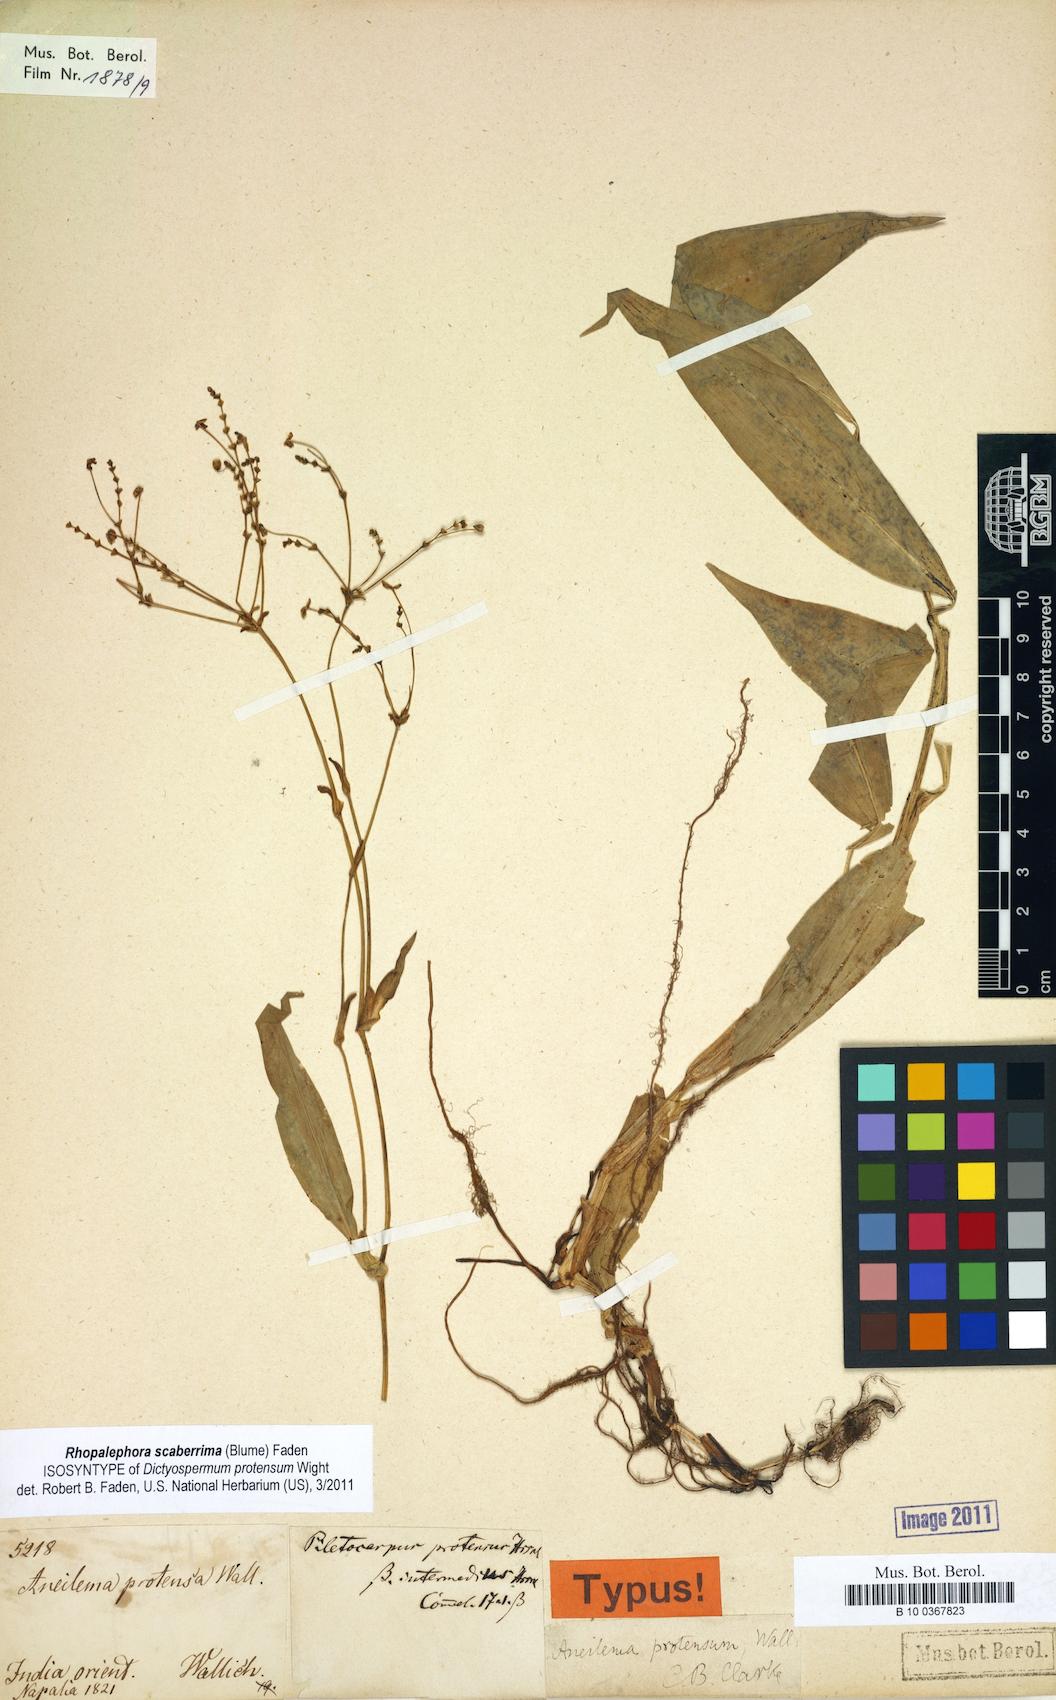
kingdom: Plantae
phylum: Tracheophyta
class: Liliopsida
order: Commelinales
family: Commelinaceae
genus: Aneilema
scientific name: Aneilema protensum
